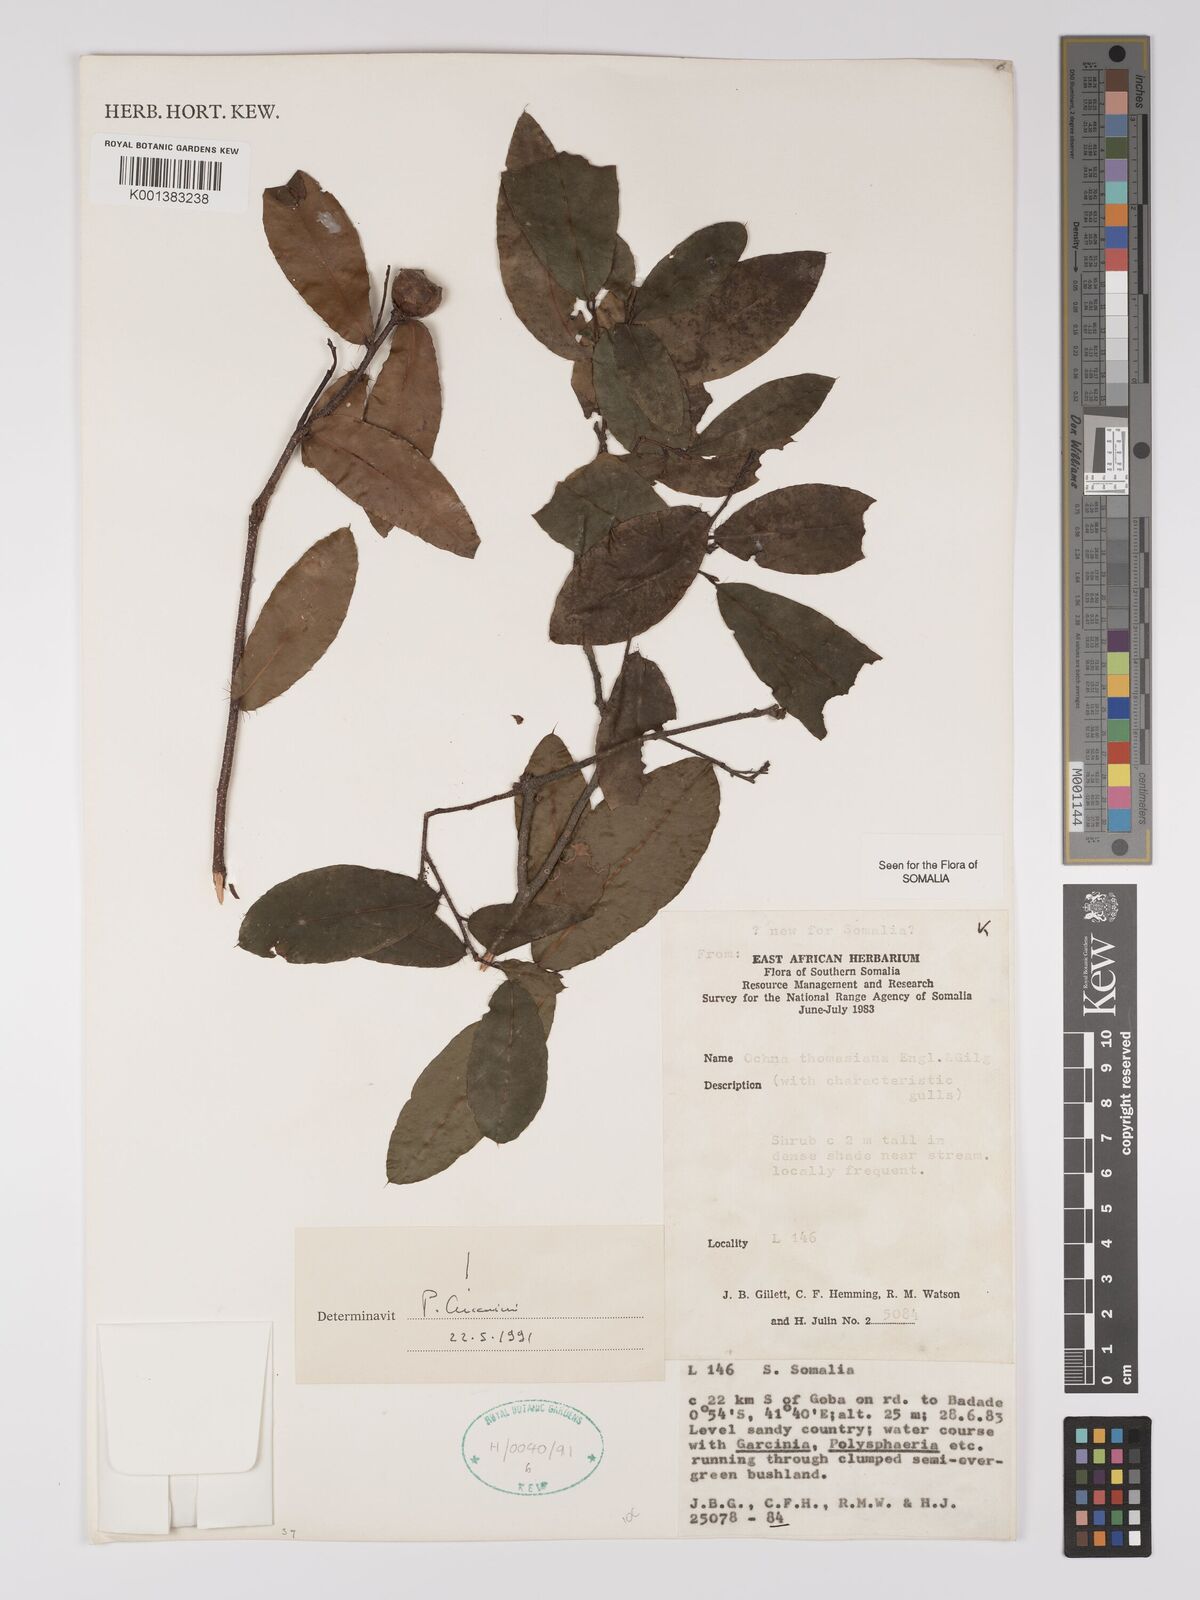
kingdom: Plantae
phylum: Tracheophyta
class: Magnoliopsida
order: Malpighiales
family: Ochnaceae
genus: Ochna
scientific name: Ochna thomasiana
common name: Thomas' bird's-eye bush
